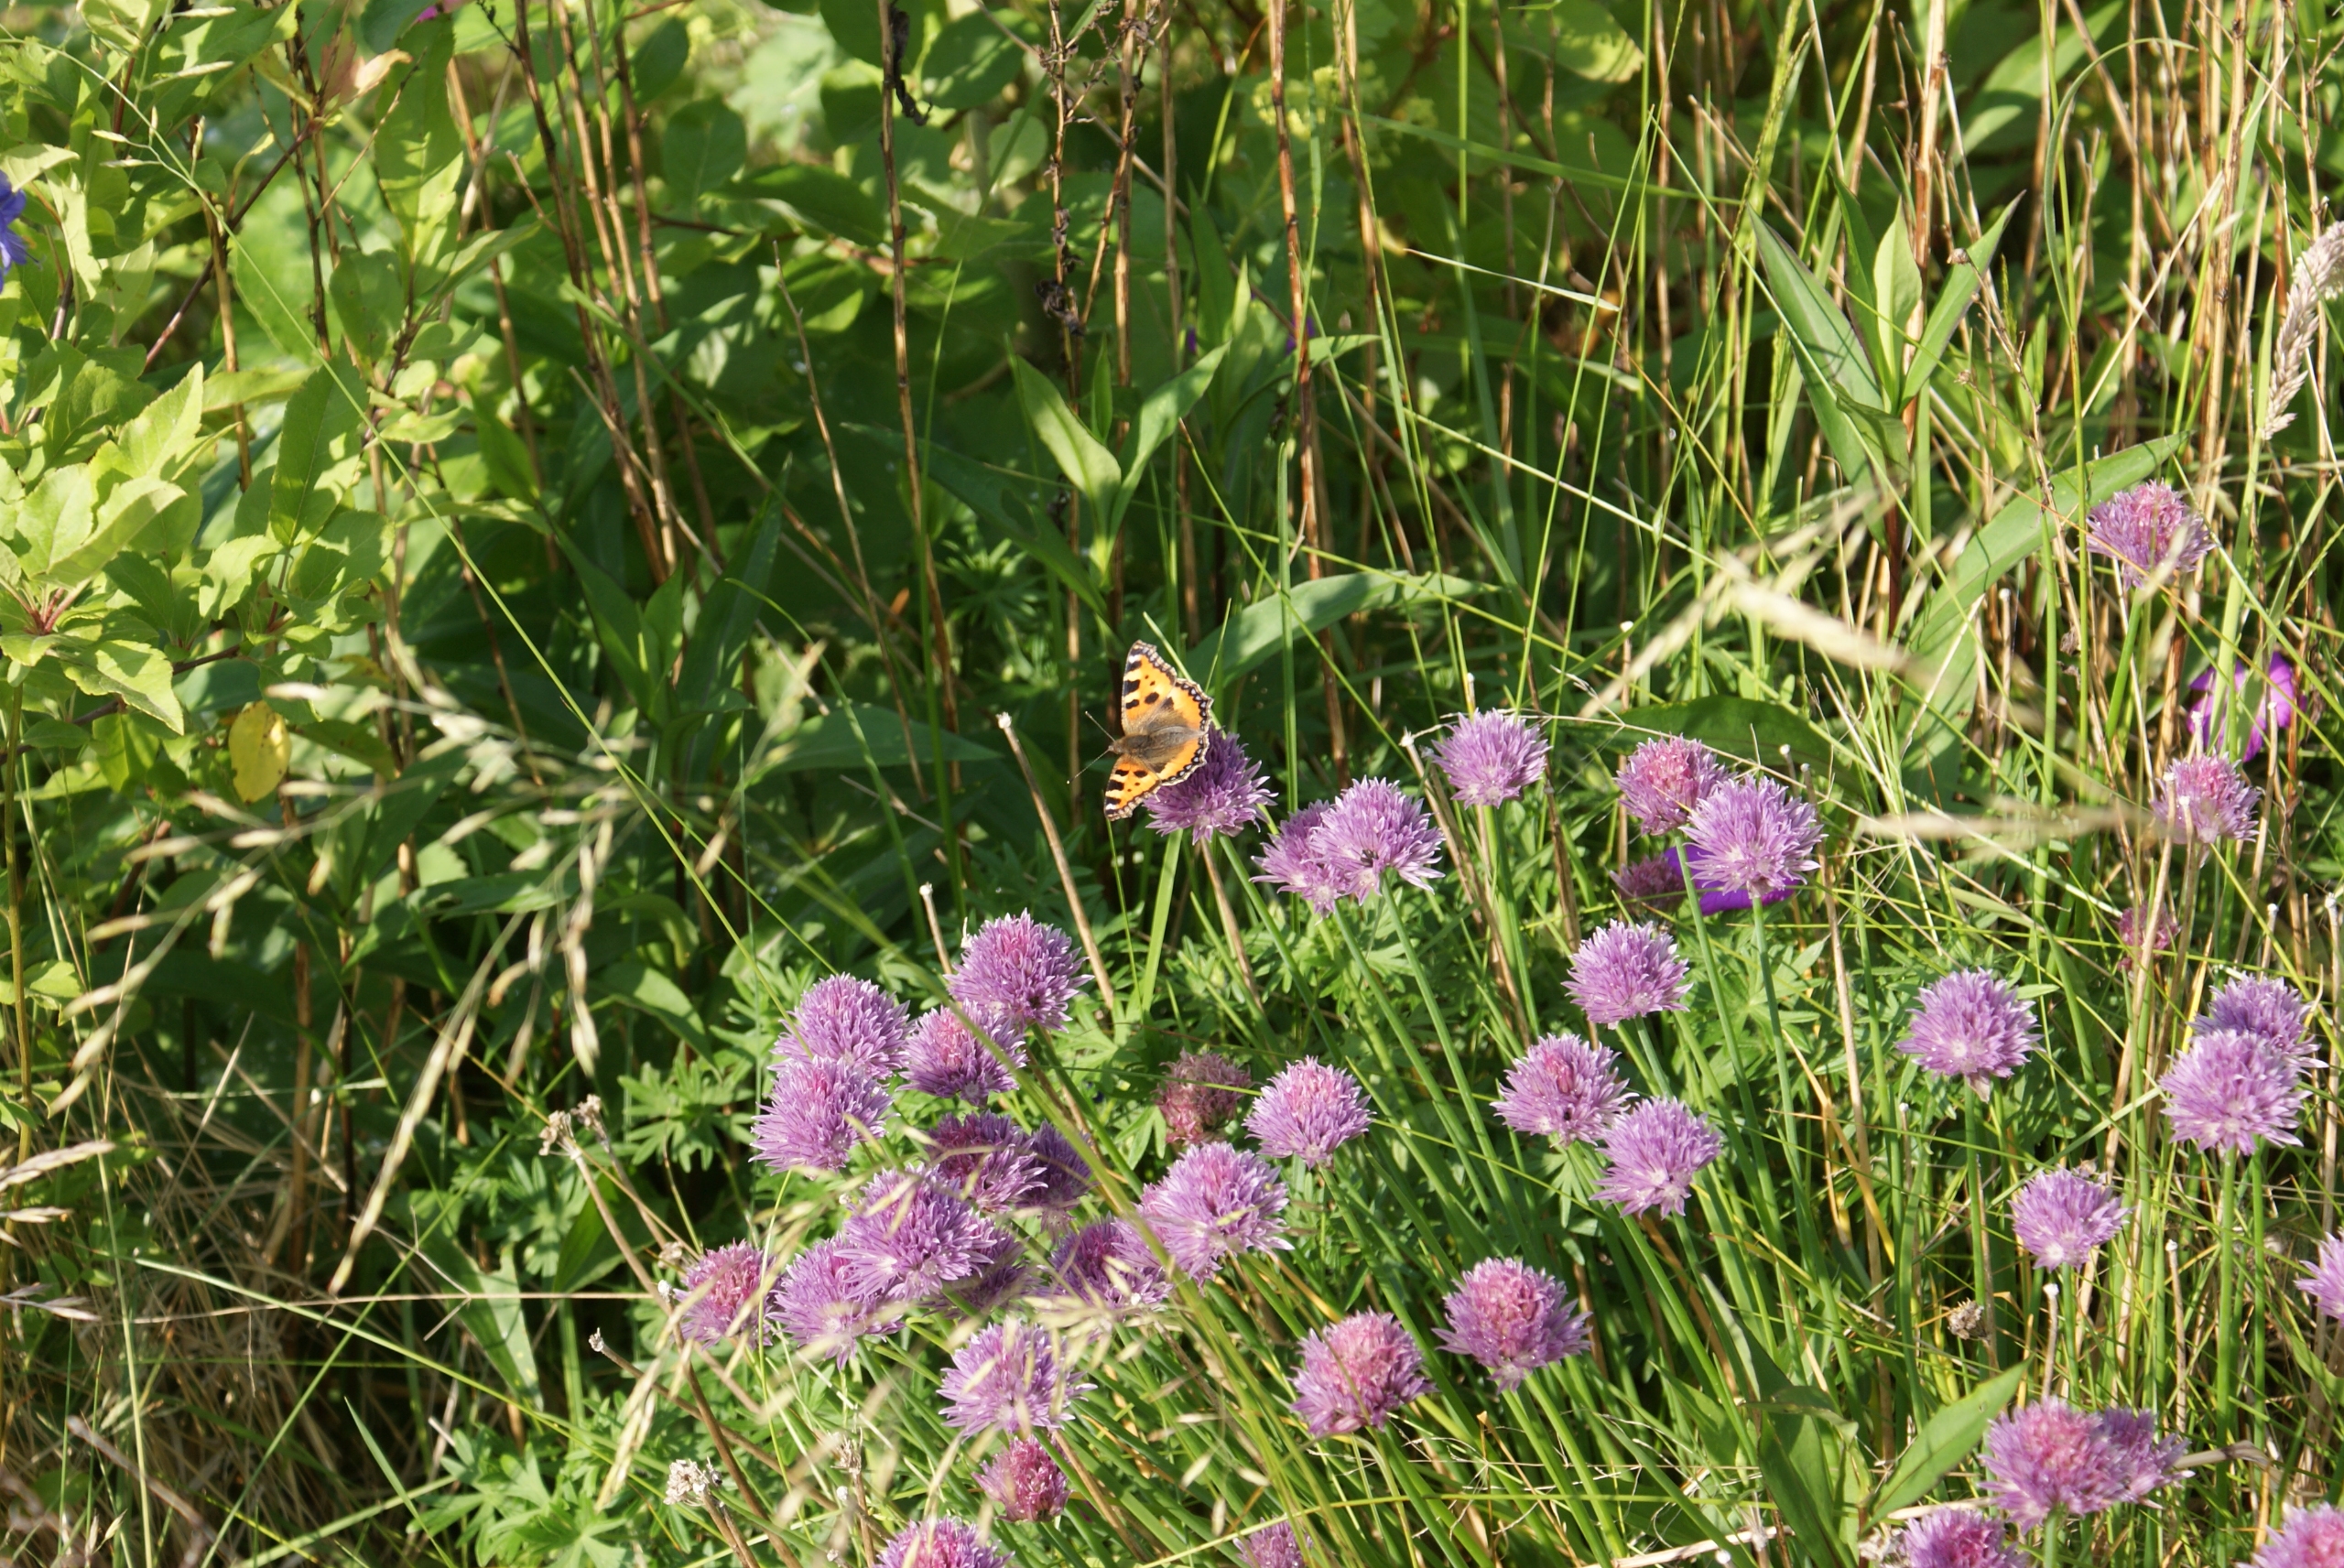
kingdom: Animalia
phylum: Arthropoda
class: Insecta
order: Lepidoptera
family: Nymphalidae
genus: Aglais
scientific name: Aglais urticae
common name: Nældens takvinge
